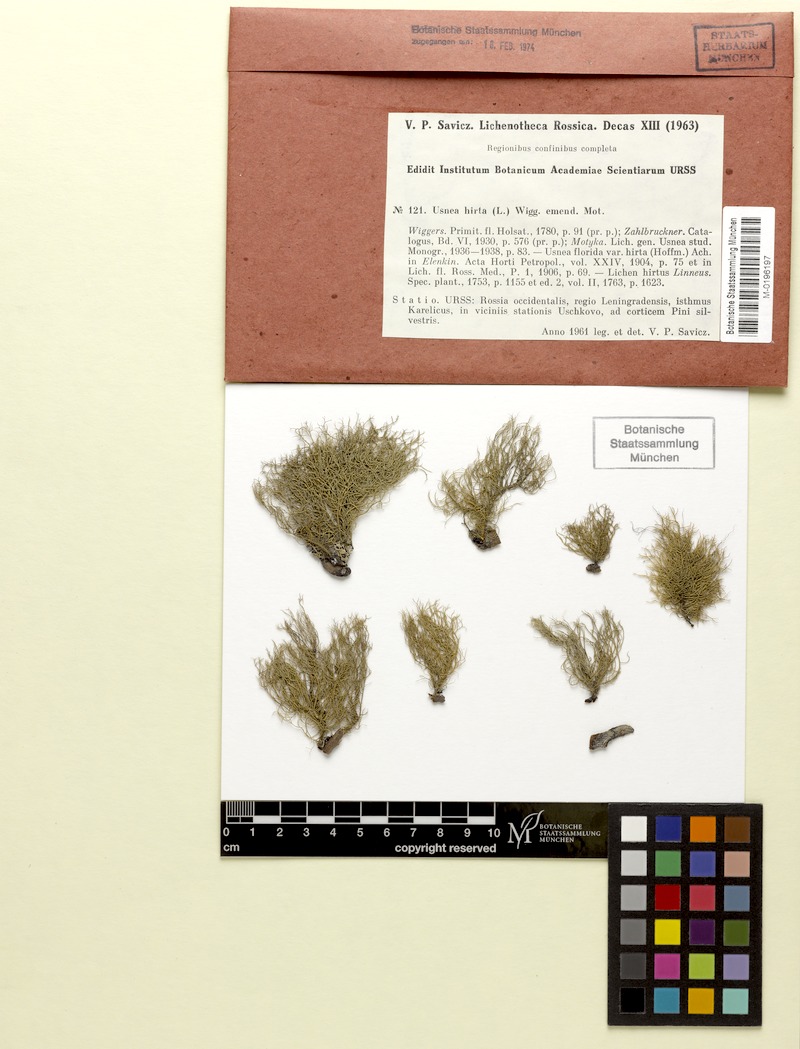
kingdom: Fungi
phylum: Ascomycota
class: Lecanoromycetes
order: Lecanorales
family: Parmeliaceae
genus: Usnea
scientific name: Usnea hirta
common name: Bristly beard lichen
